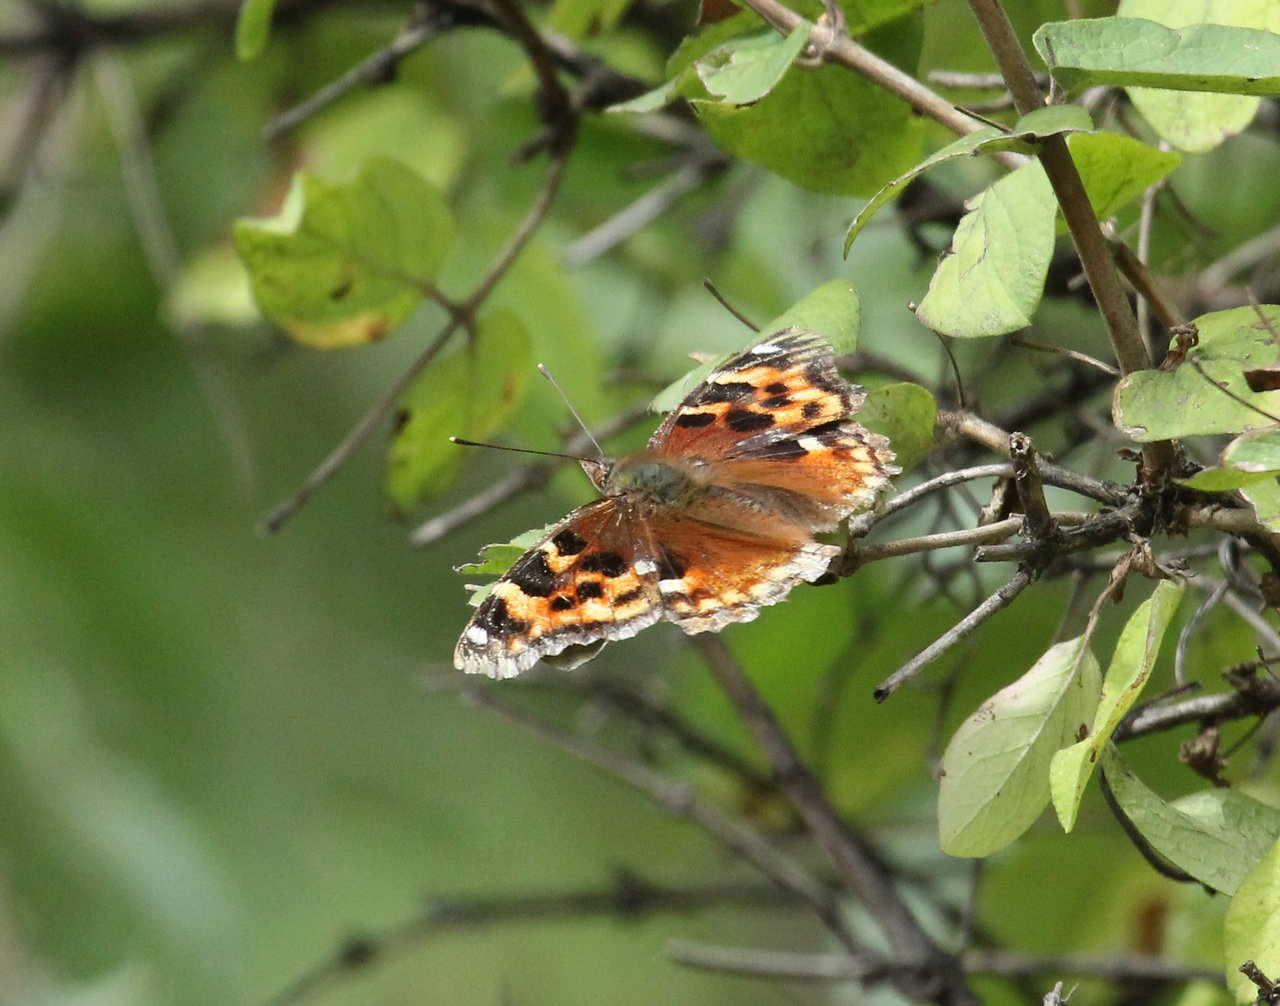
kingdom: Animalia
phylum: Arthropoda
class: Insecta
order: Lepidoptera
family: Nymphalidae
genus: Polygonia
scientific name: Polygonia vaualbum
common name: Compton Tortoiseshell
